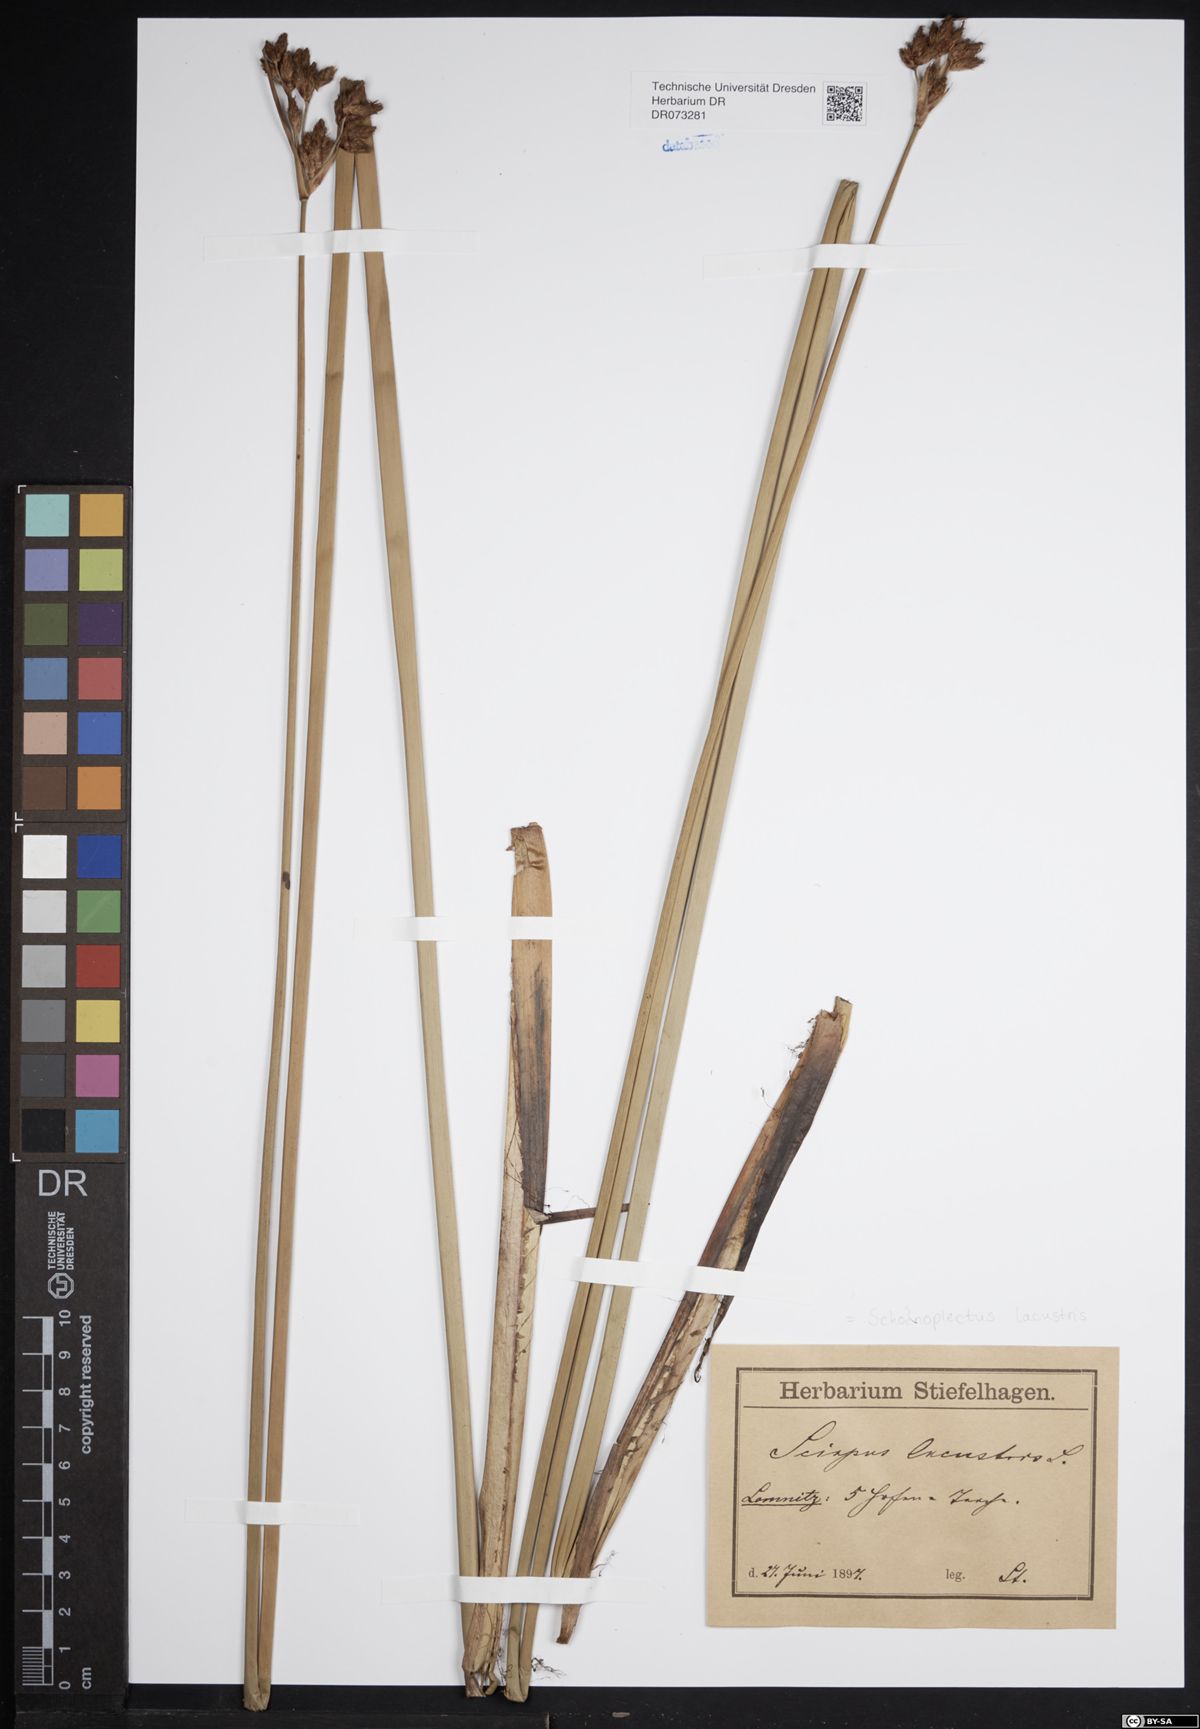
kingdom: Plantae
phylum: Tracheophyta
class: Liliopsida
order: Poales
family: Cyperaceae
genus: Schoenoplectus
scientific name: Schoenoplectus lacustris
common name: Common club-rush
